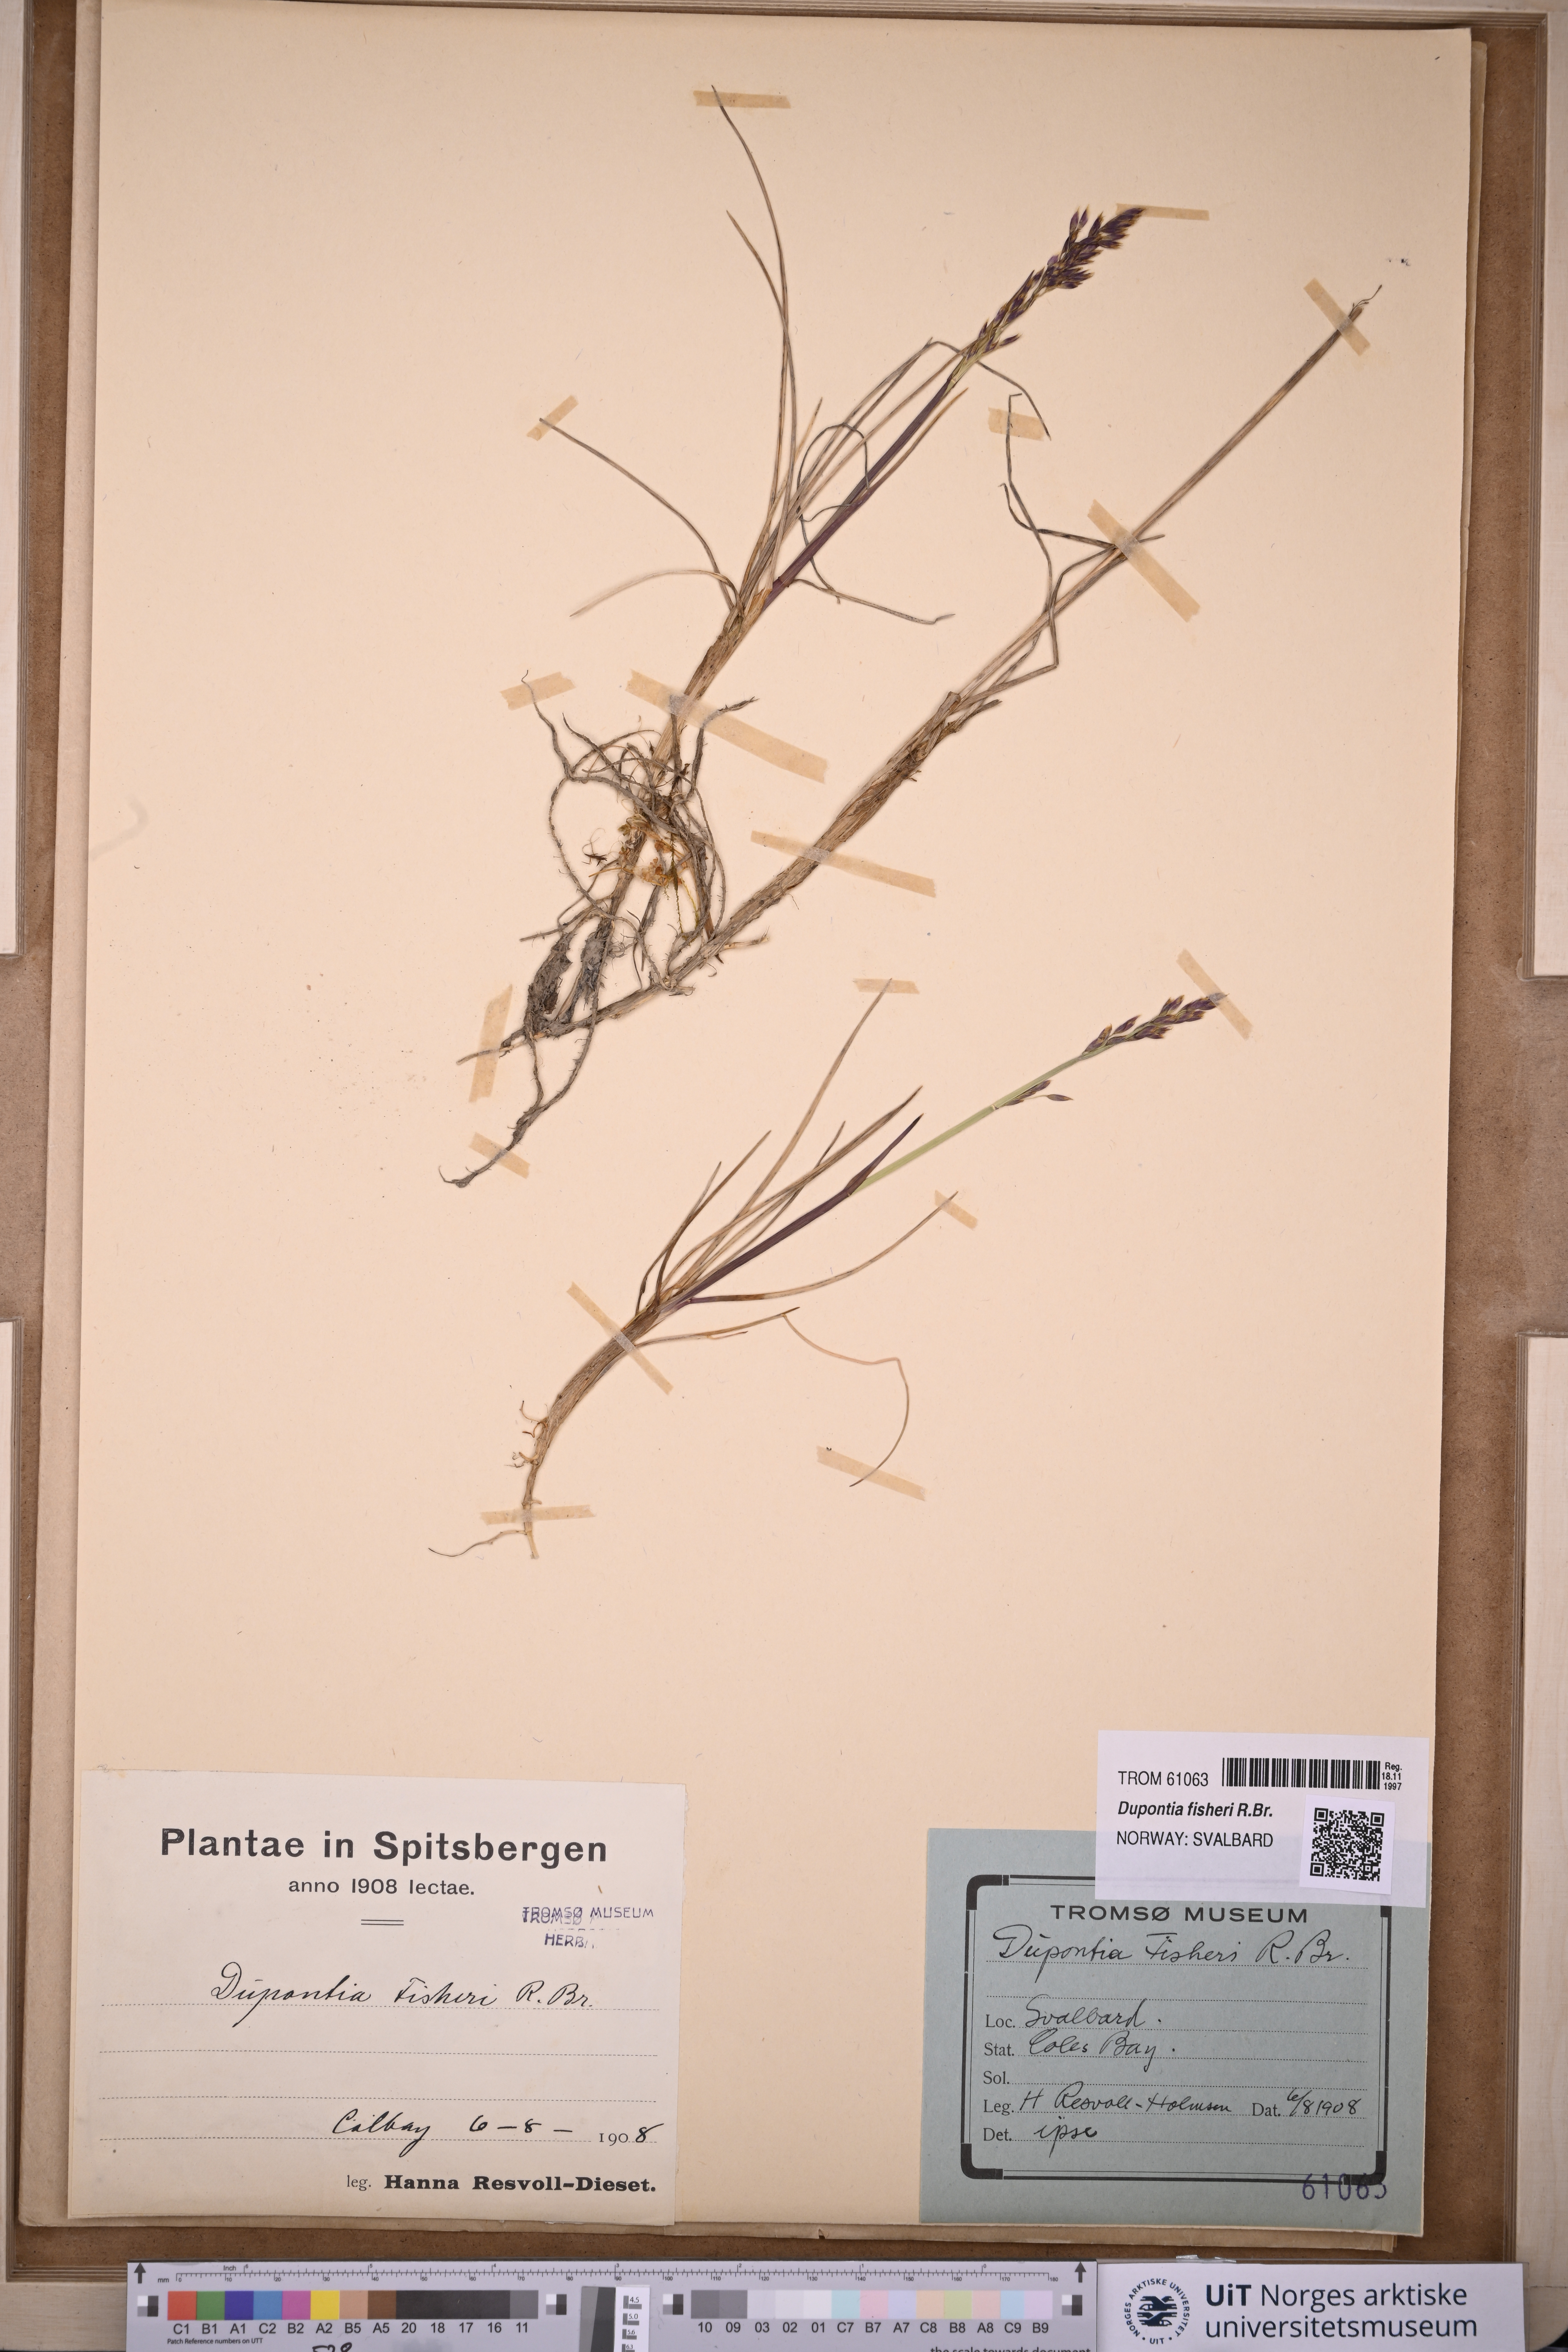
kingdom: Plantae
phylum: Tracheophyta
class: Liliopsida
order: Poales
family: Poaceae
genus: Dupontia
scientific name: Dupontia fisheri
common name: Tundra grass
